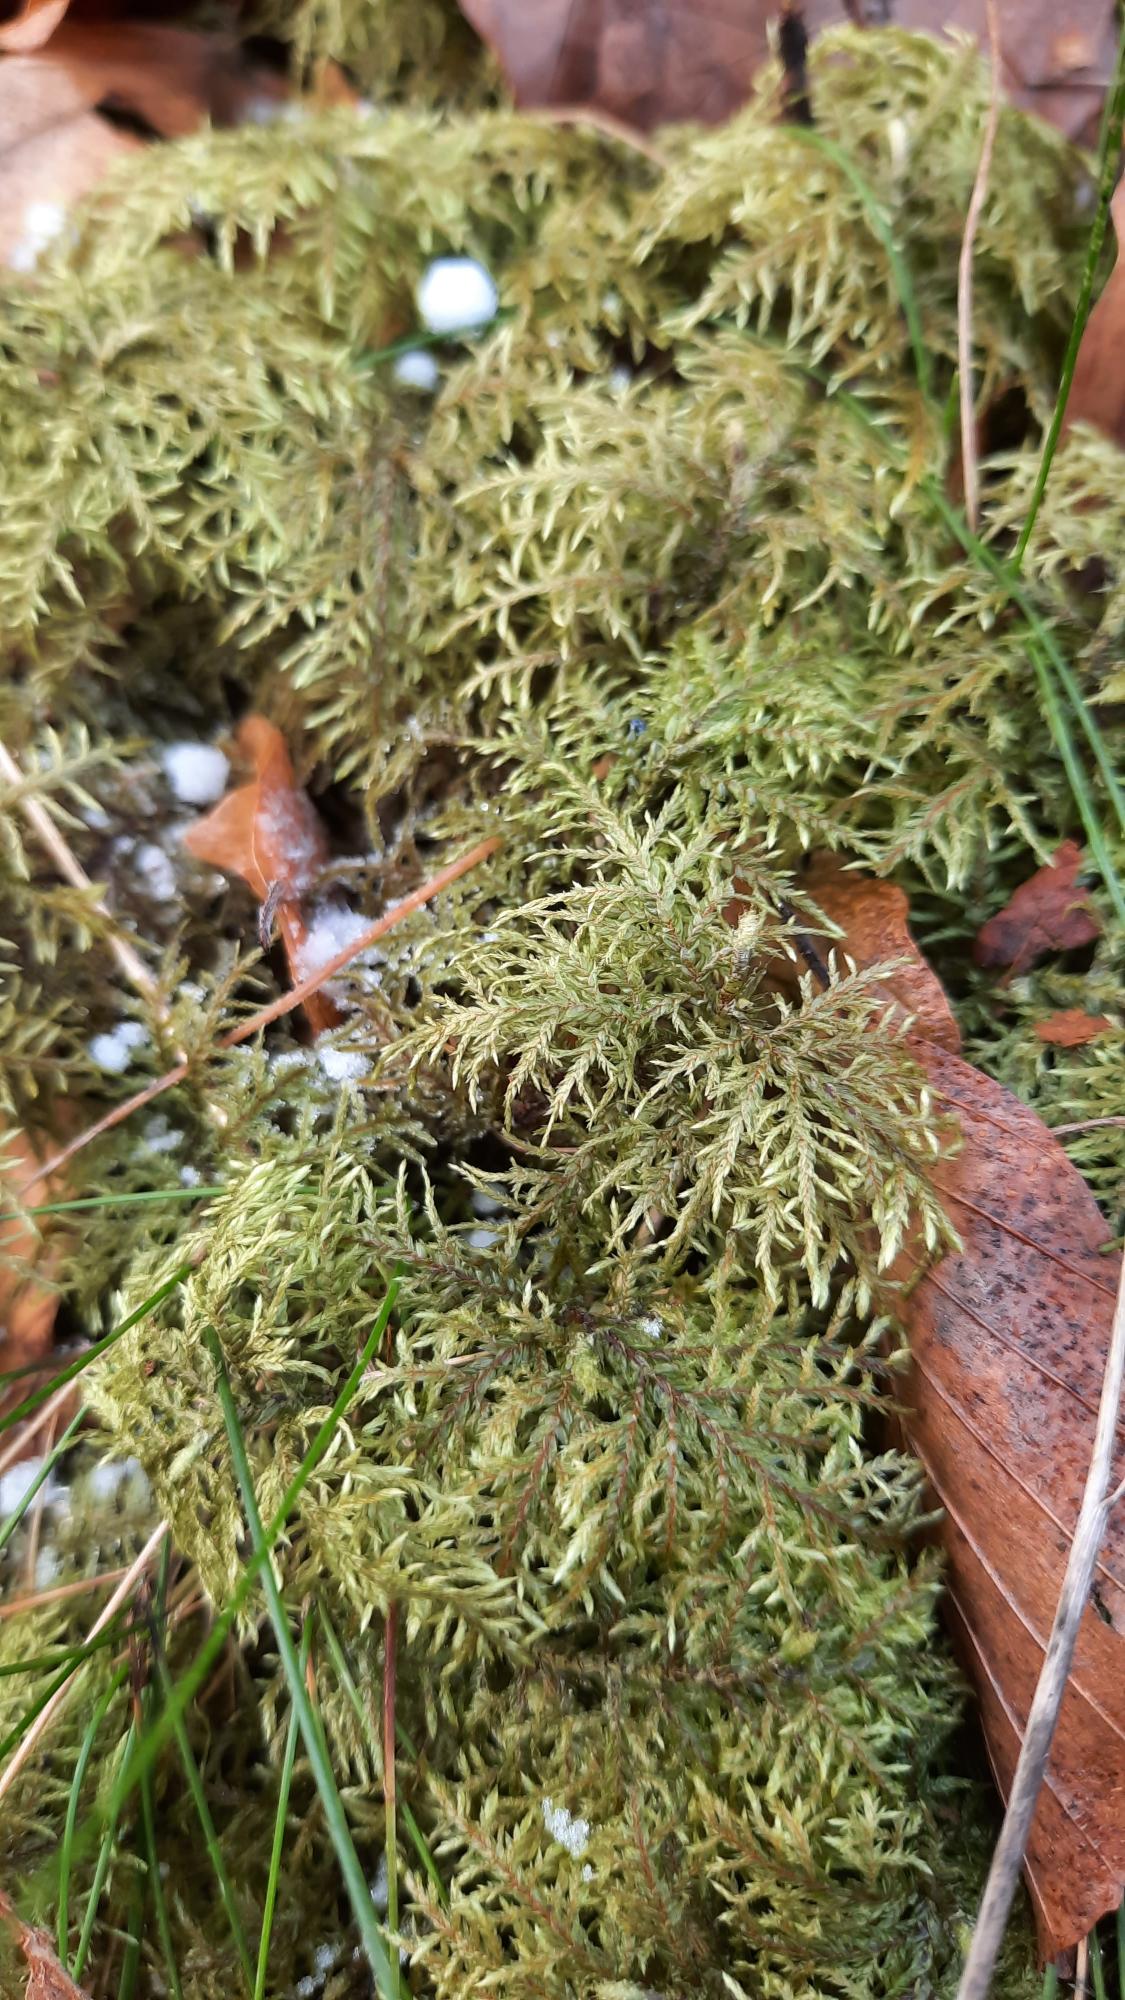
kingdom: Plantae
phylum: Bryophyta
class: Bryopsida
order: Hypnales
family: Hylocomiaceae
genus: Hylocomium
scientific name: Hylocomium splendens
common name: Almindelig etagemos
